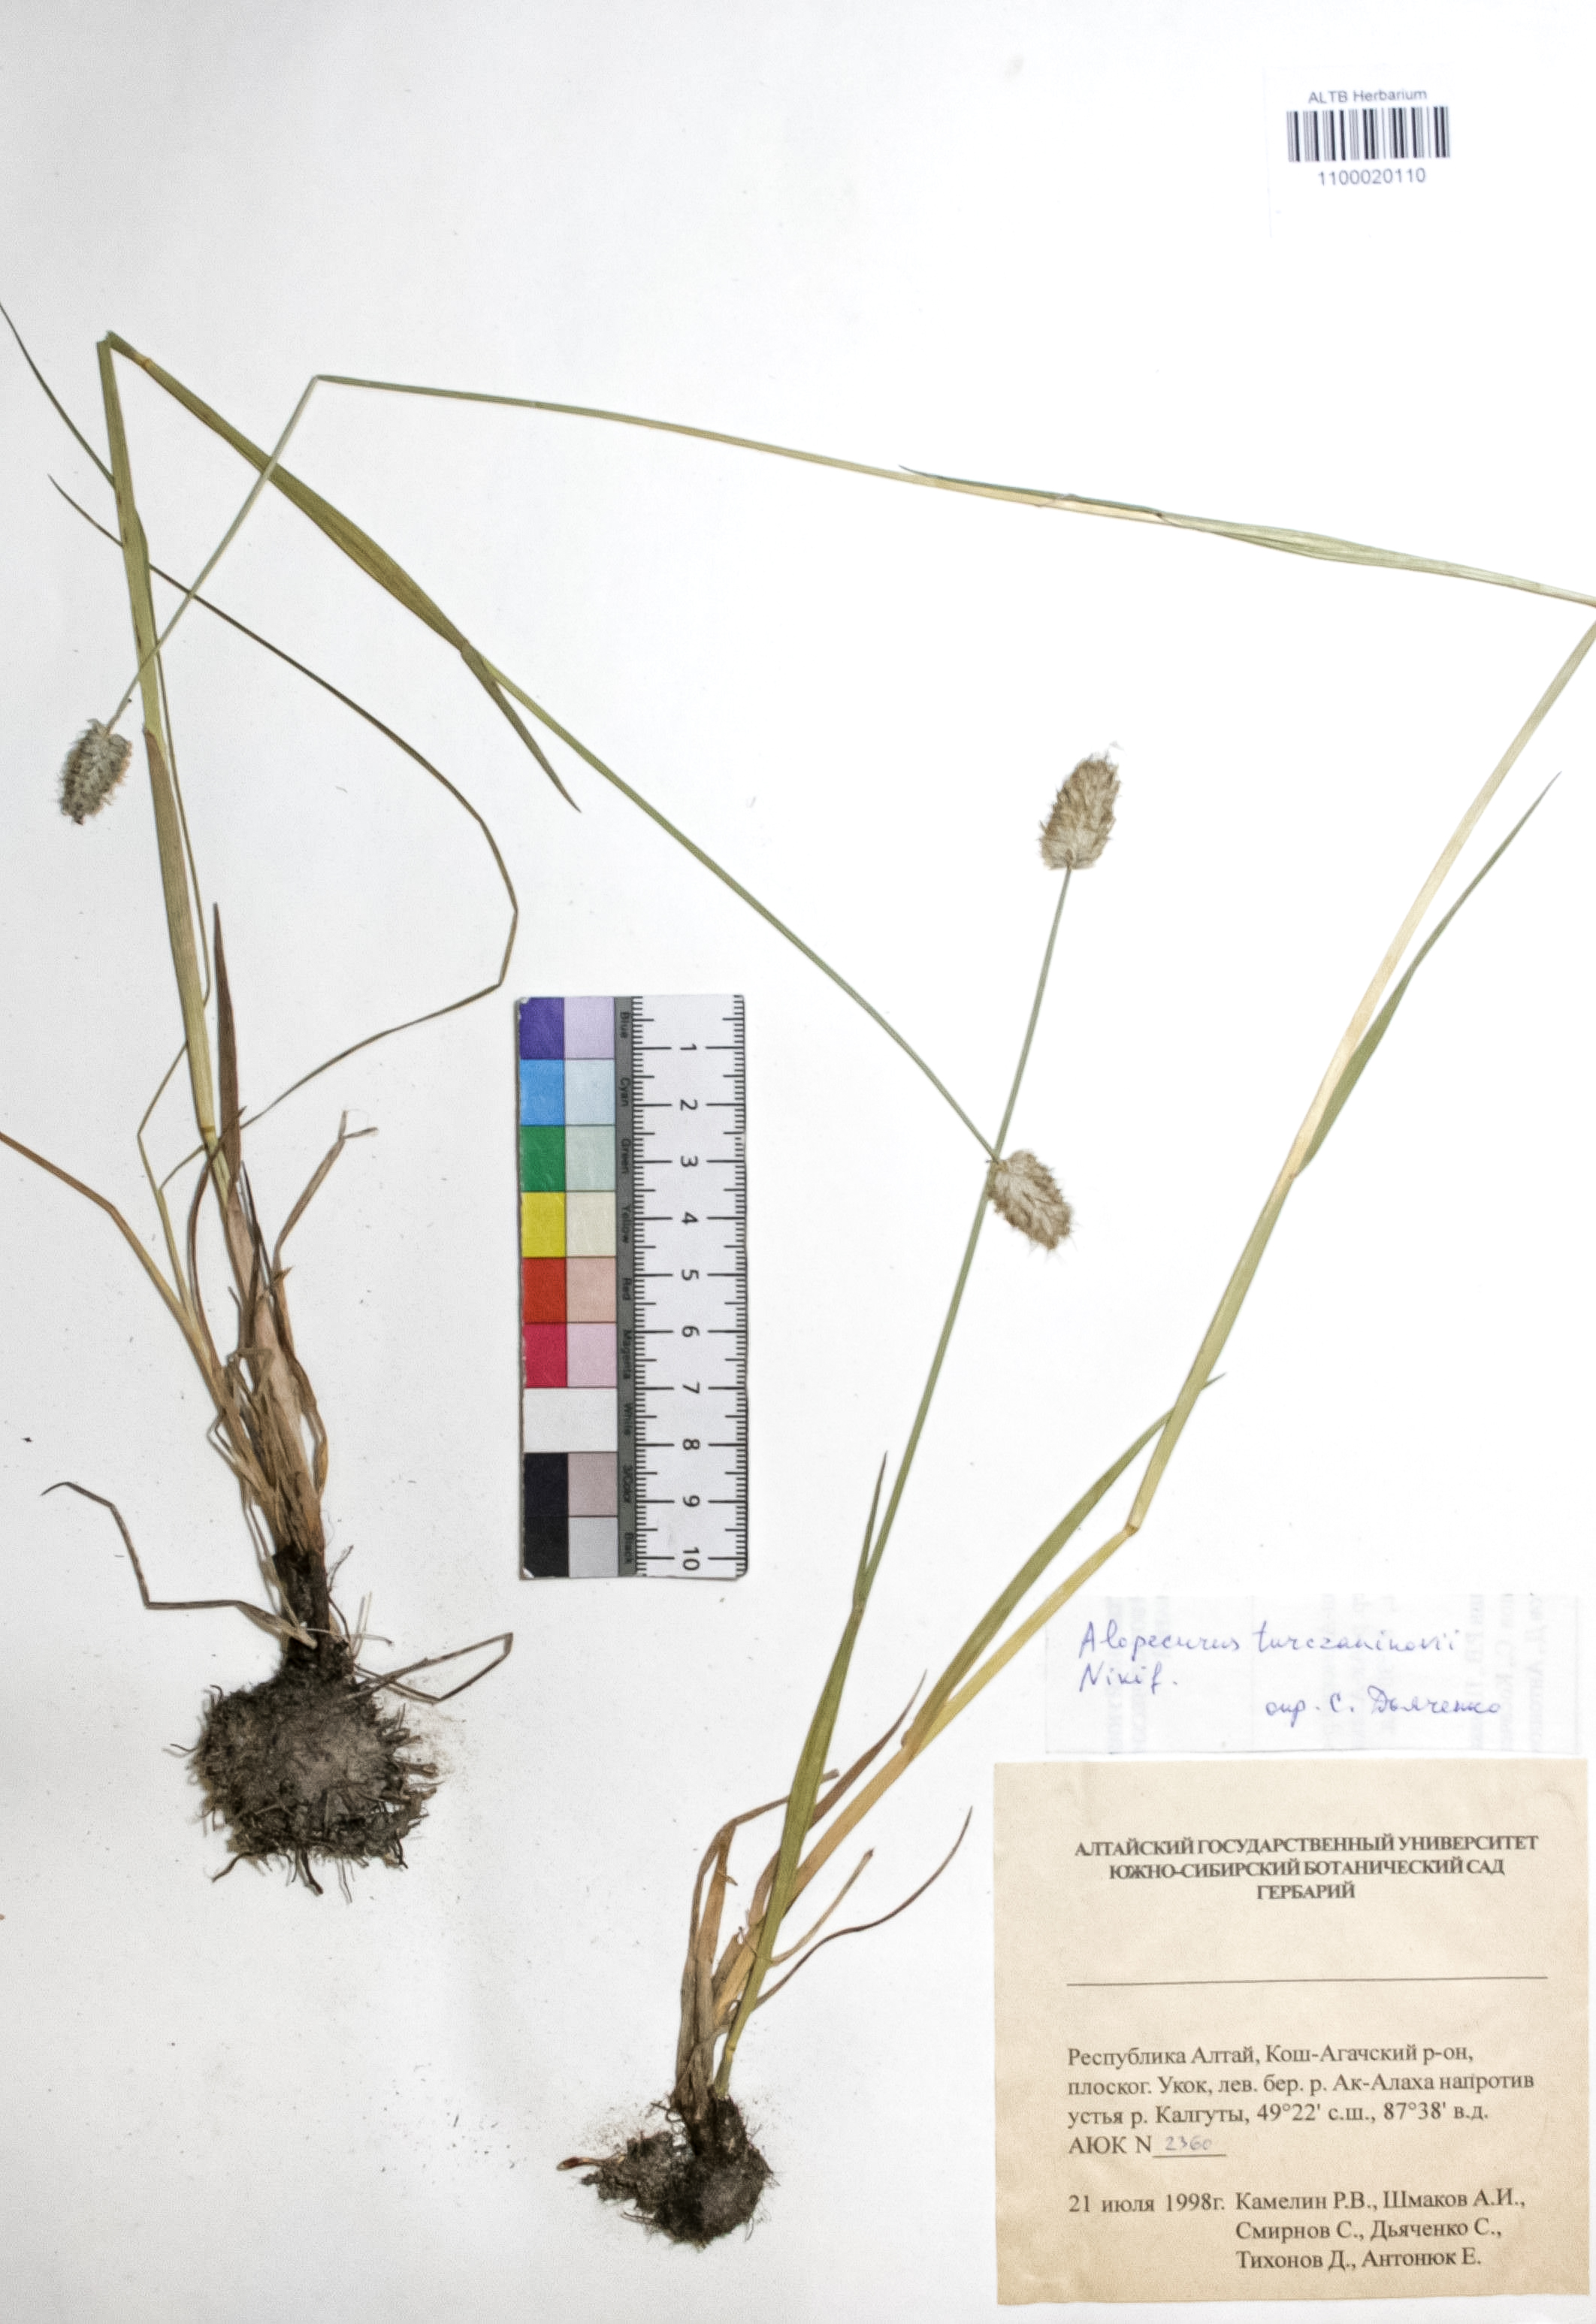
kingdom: Plantae
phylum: Tracheophyta
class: Liliopsida
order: Poales
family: Poaceae
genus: Alopecurus
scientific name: Alopecurus turczaninovii
